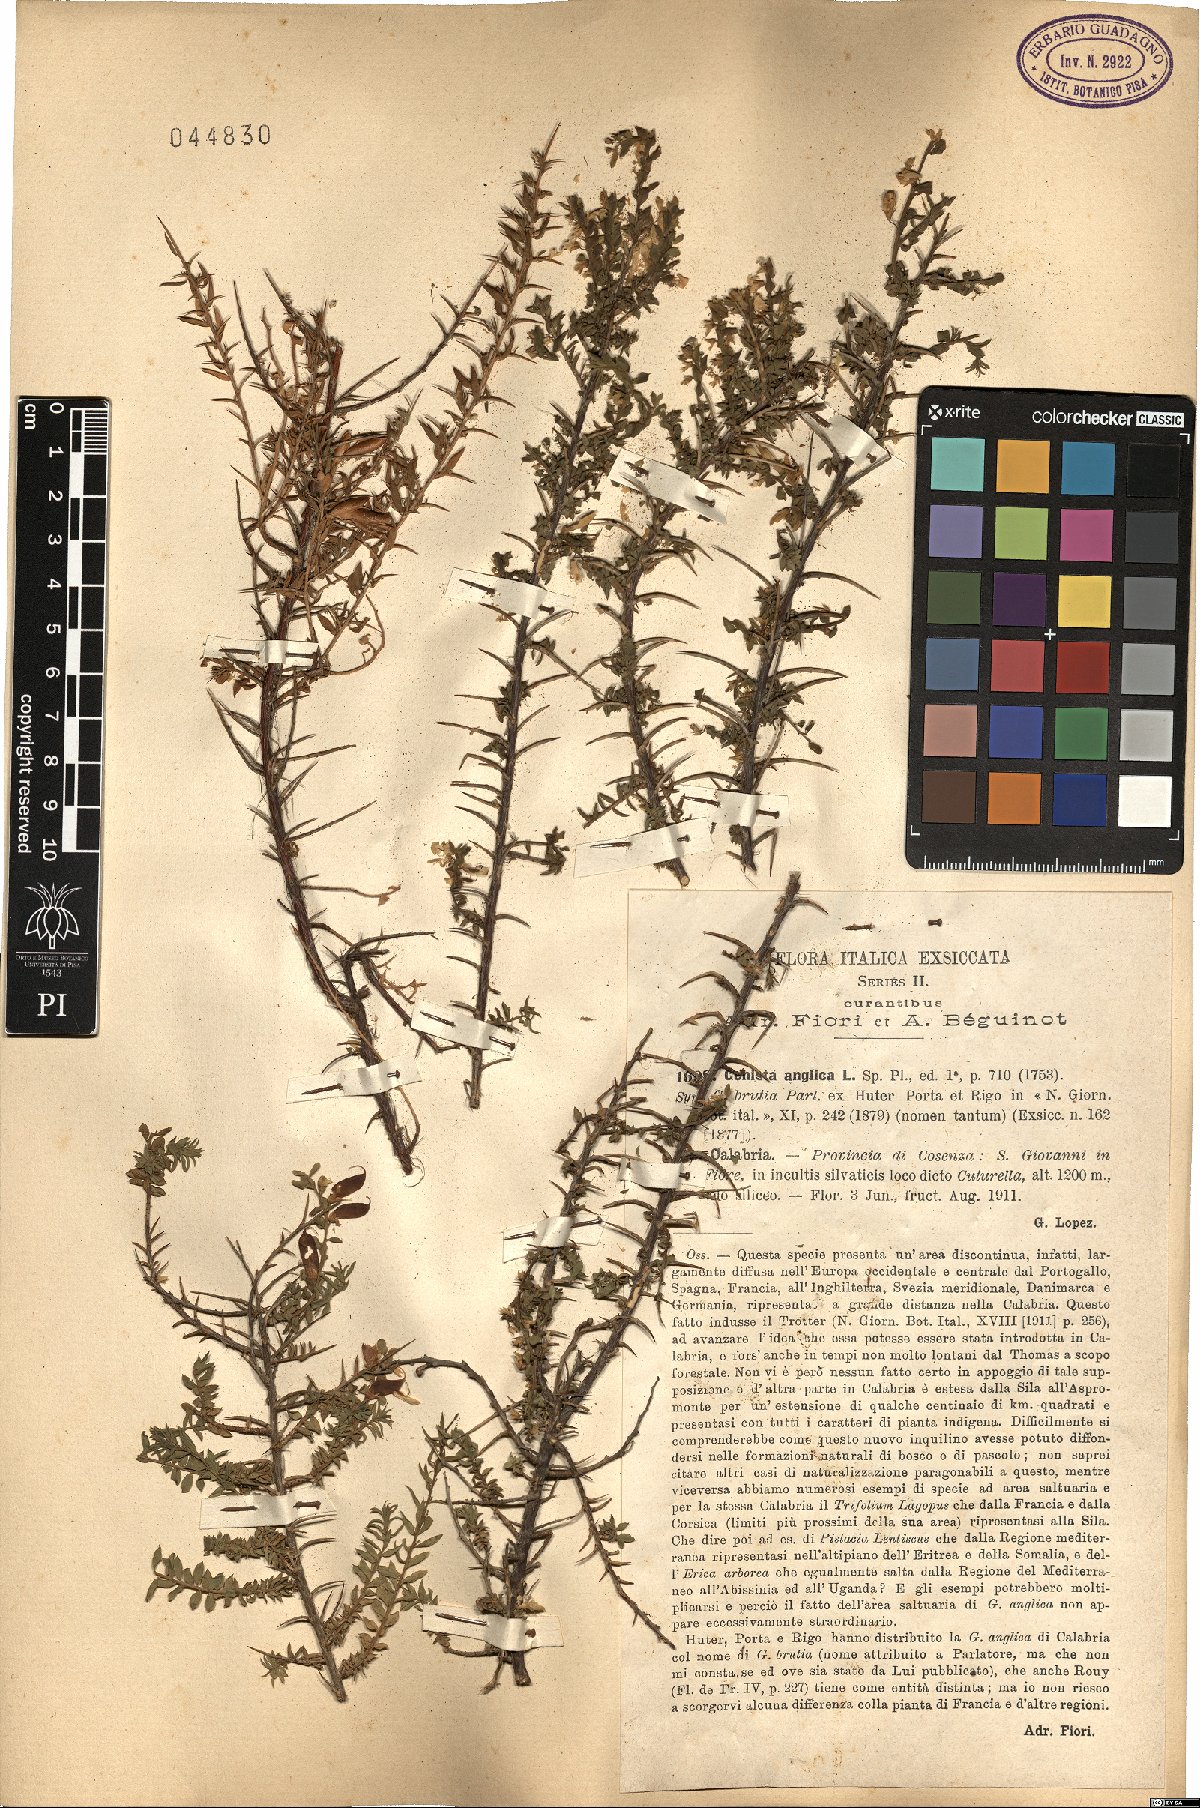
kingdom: Plantae
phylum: Tracheophyta
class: Magnoliopsida
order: Fabales
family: Fabaceae
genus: Genista
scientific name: Genista anglica
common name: Petty whin
